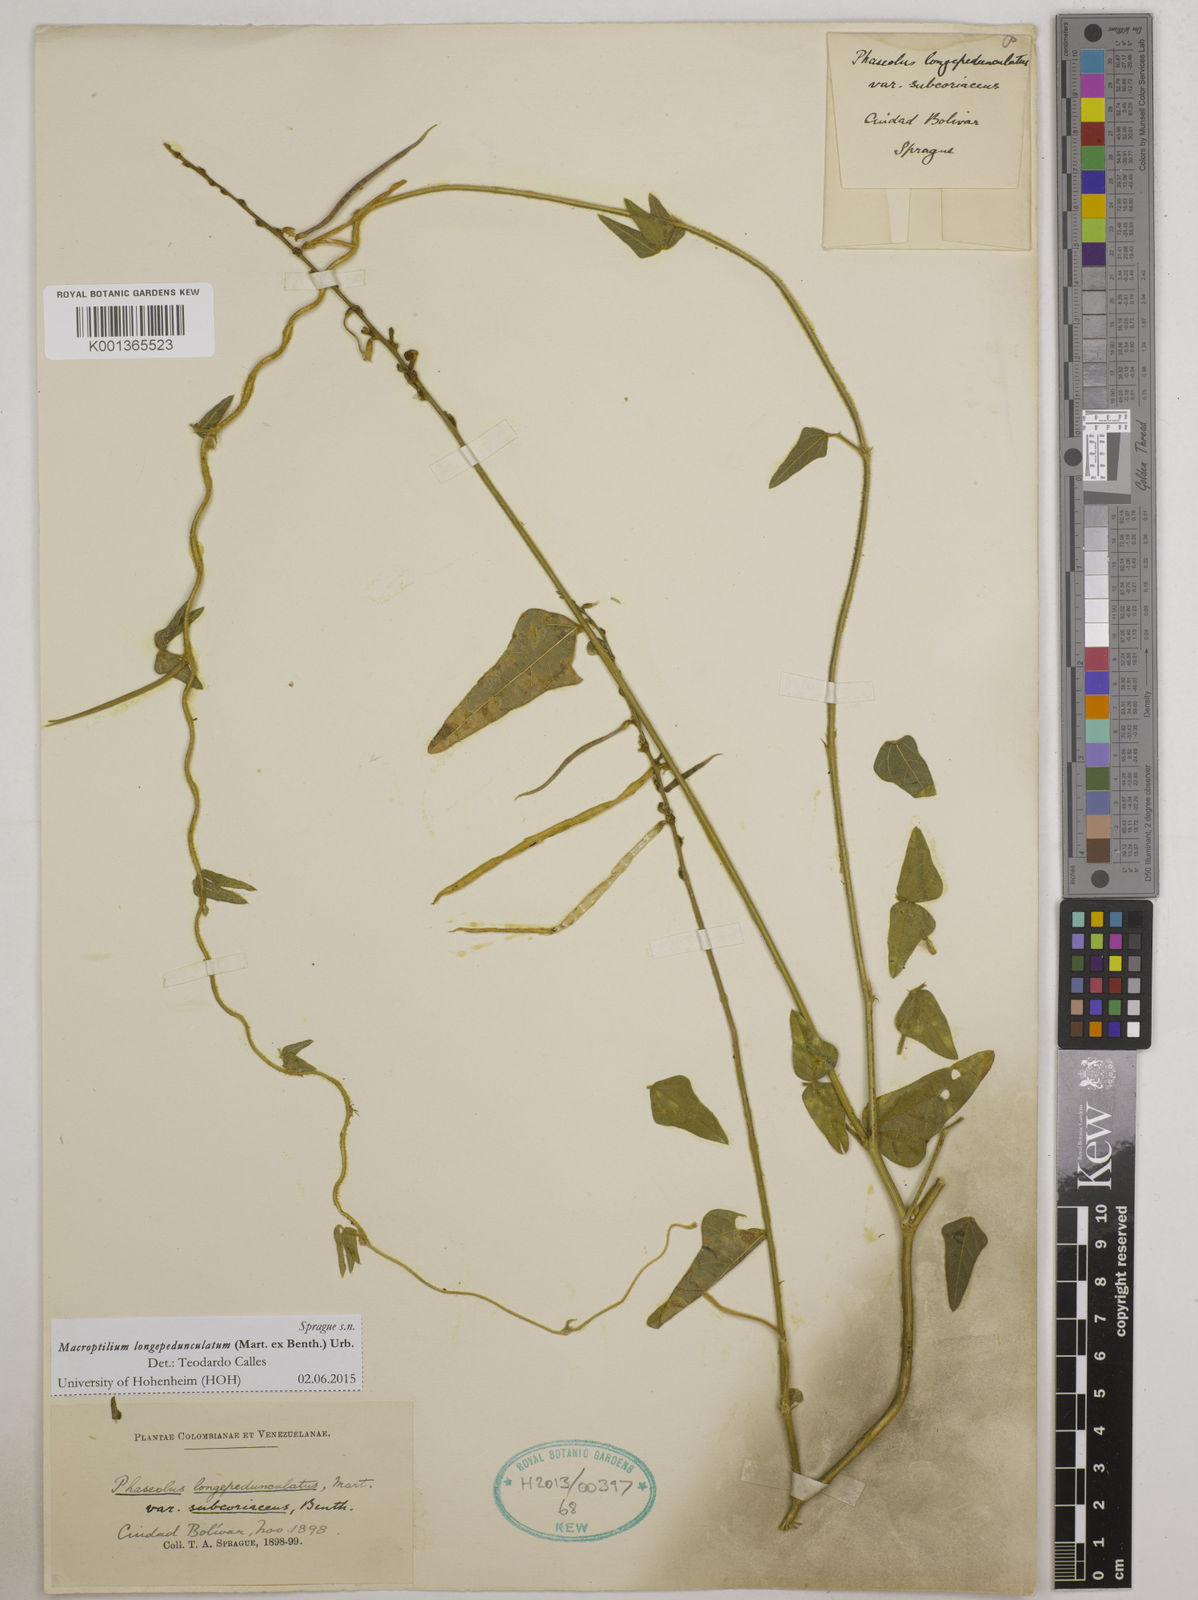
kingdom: Plantae
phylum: Tracheophyta
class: Magnoliopsida
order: Fabales
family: Fabaceae
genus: Macroptilium
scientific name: Macroptilium longepedunculatum
